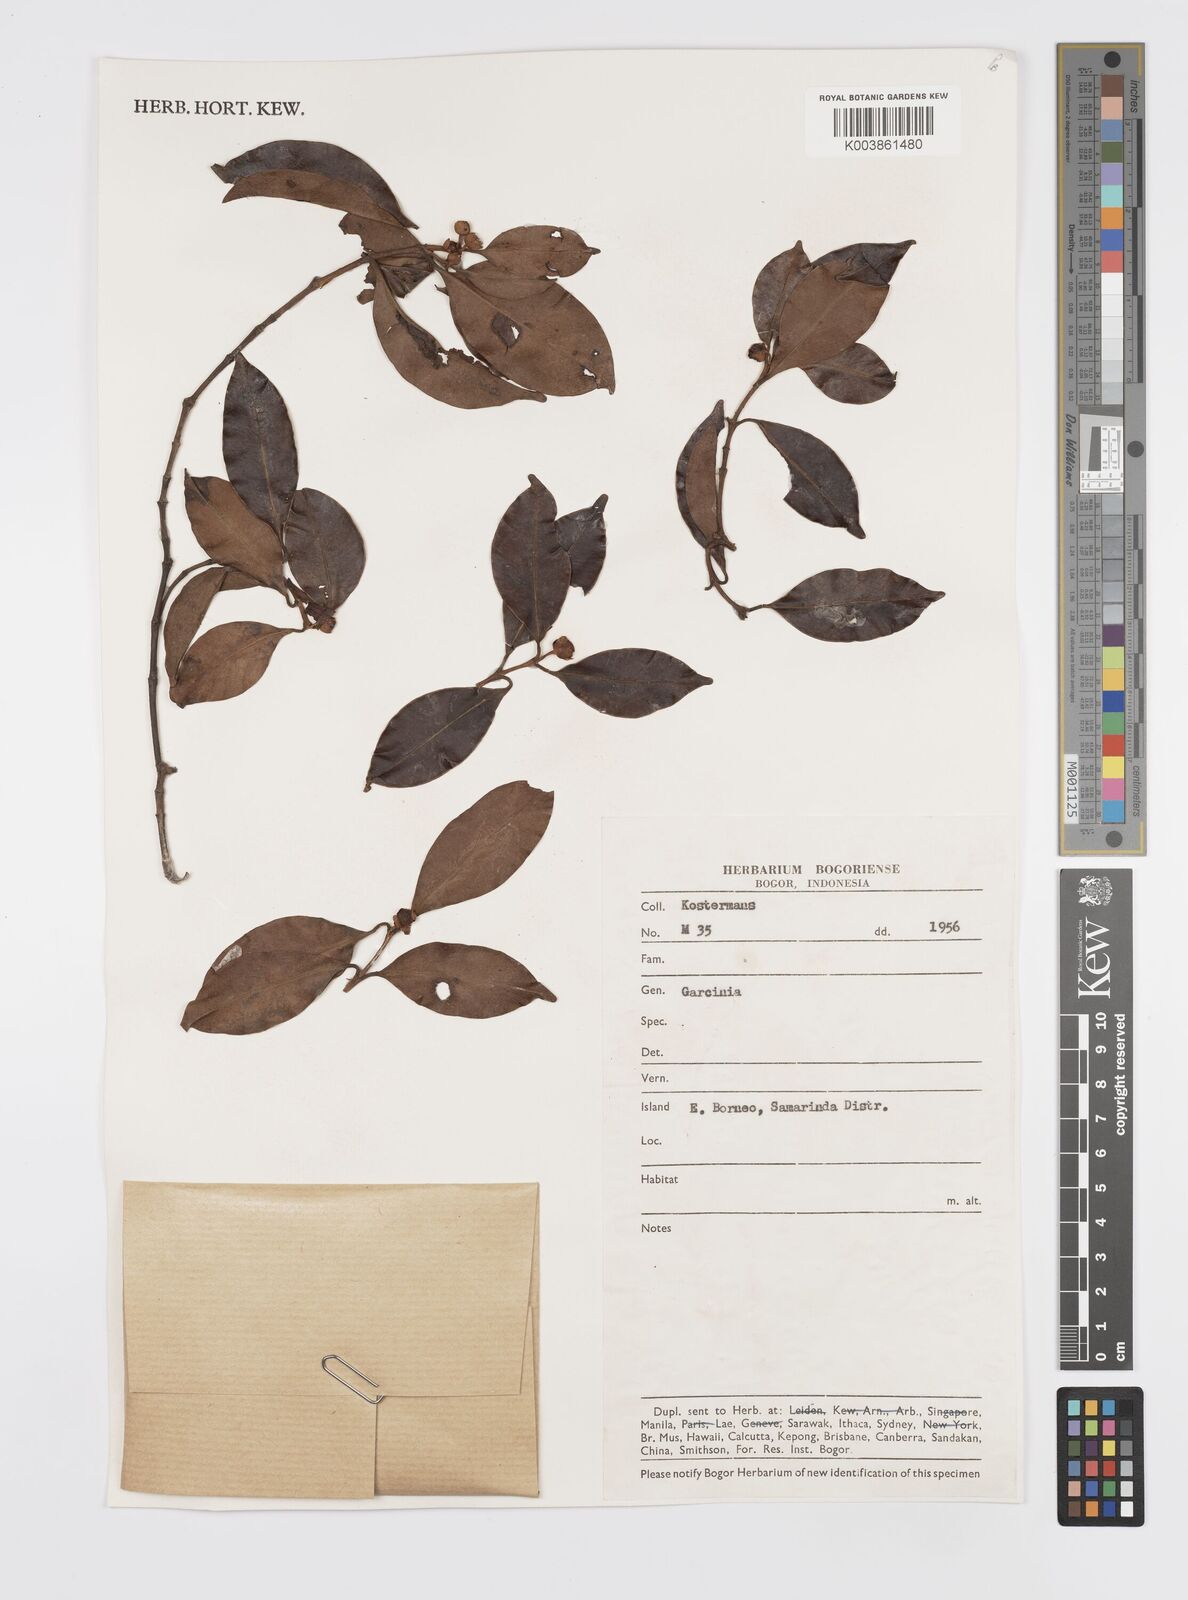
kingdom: Plantae
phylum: Tracheophyta
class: Magnoliopsida
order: Malpighiales
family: Clusiaceae
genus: Garcinia
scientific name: Garcinia
